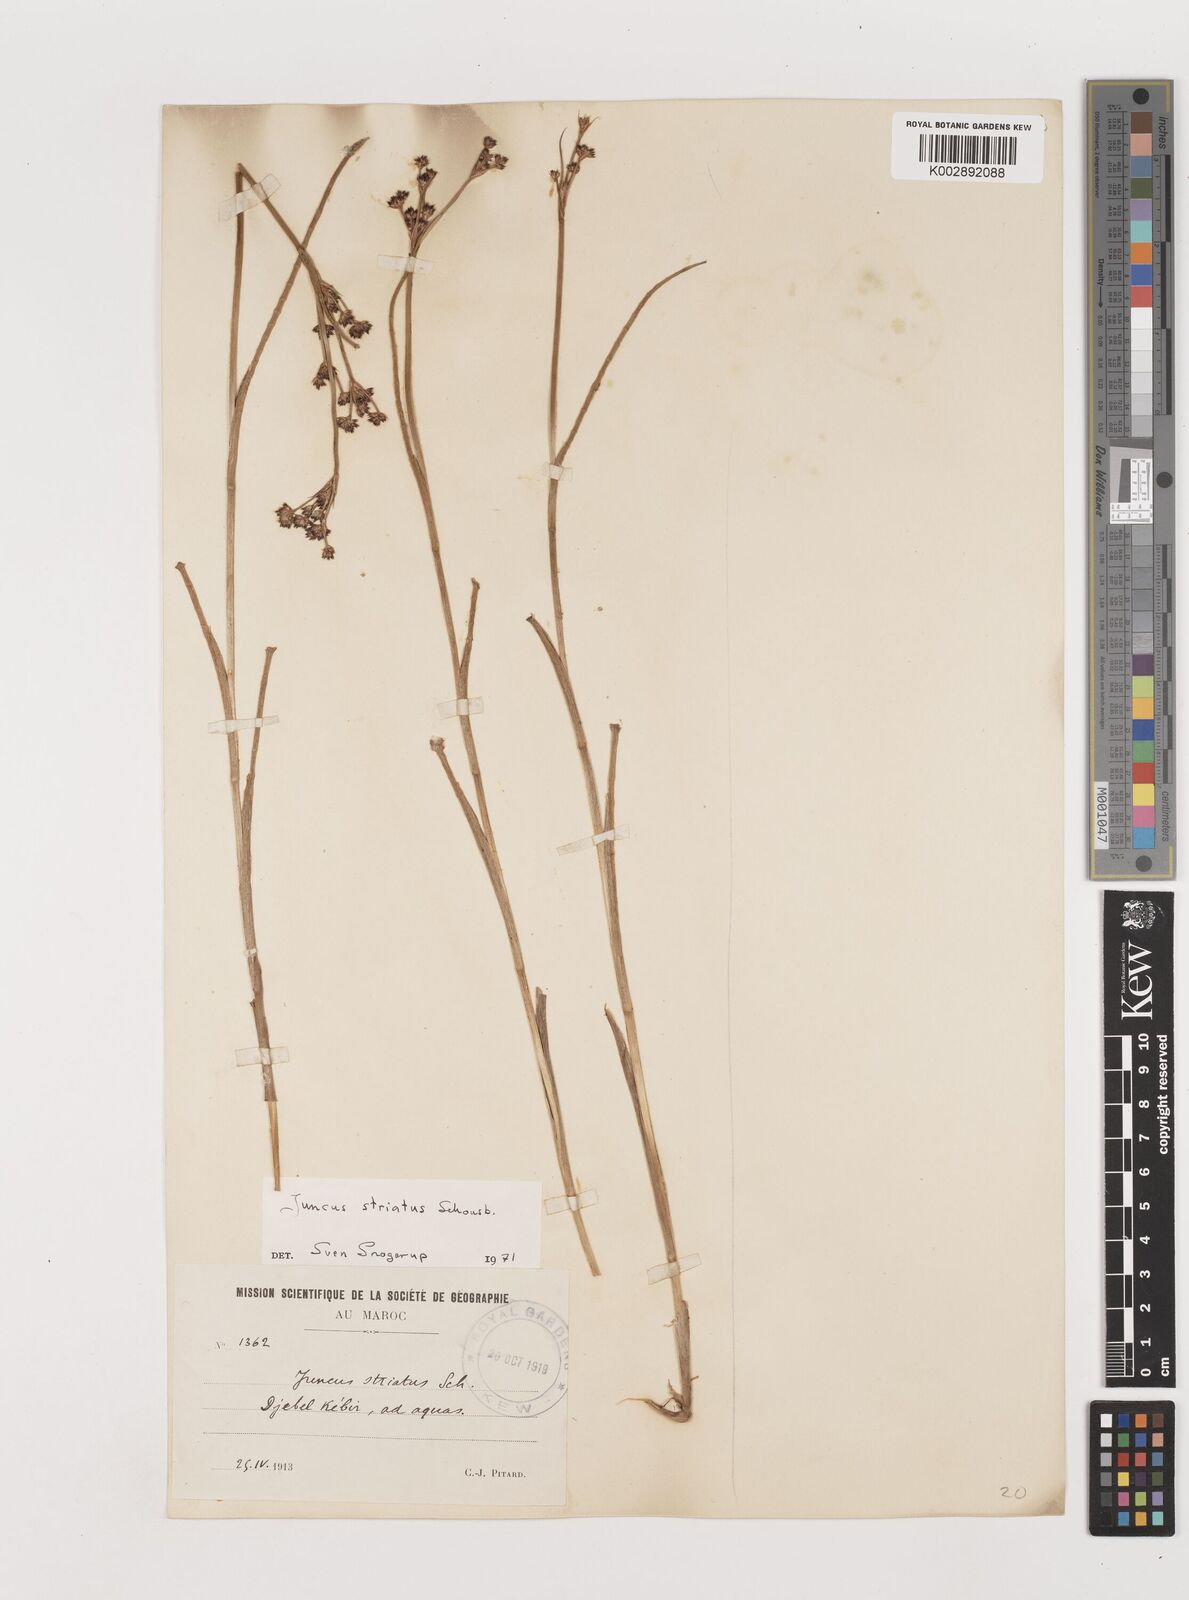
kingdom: Plantae
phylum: Tracheophyta
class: Liliopsida
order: Poales
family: Juncaceae
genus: Juncus
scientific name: Juncus striatus
